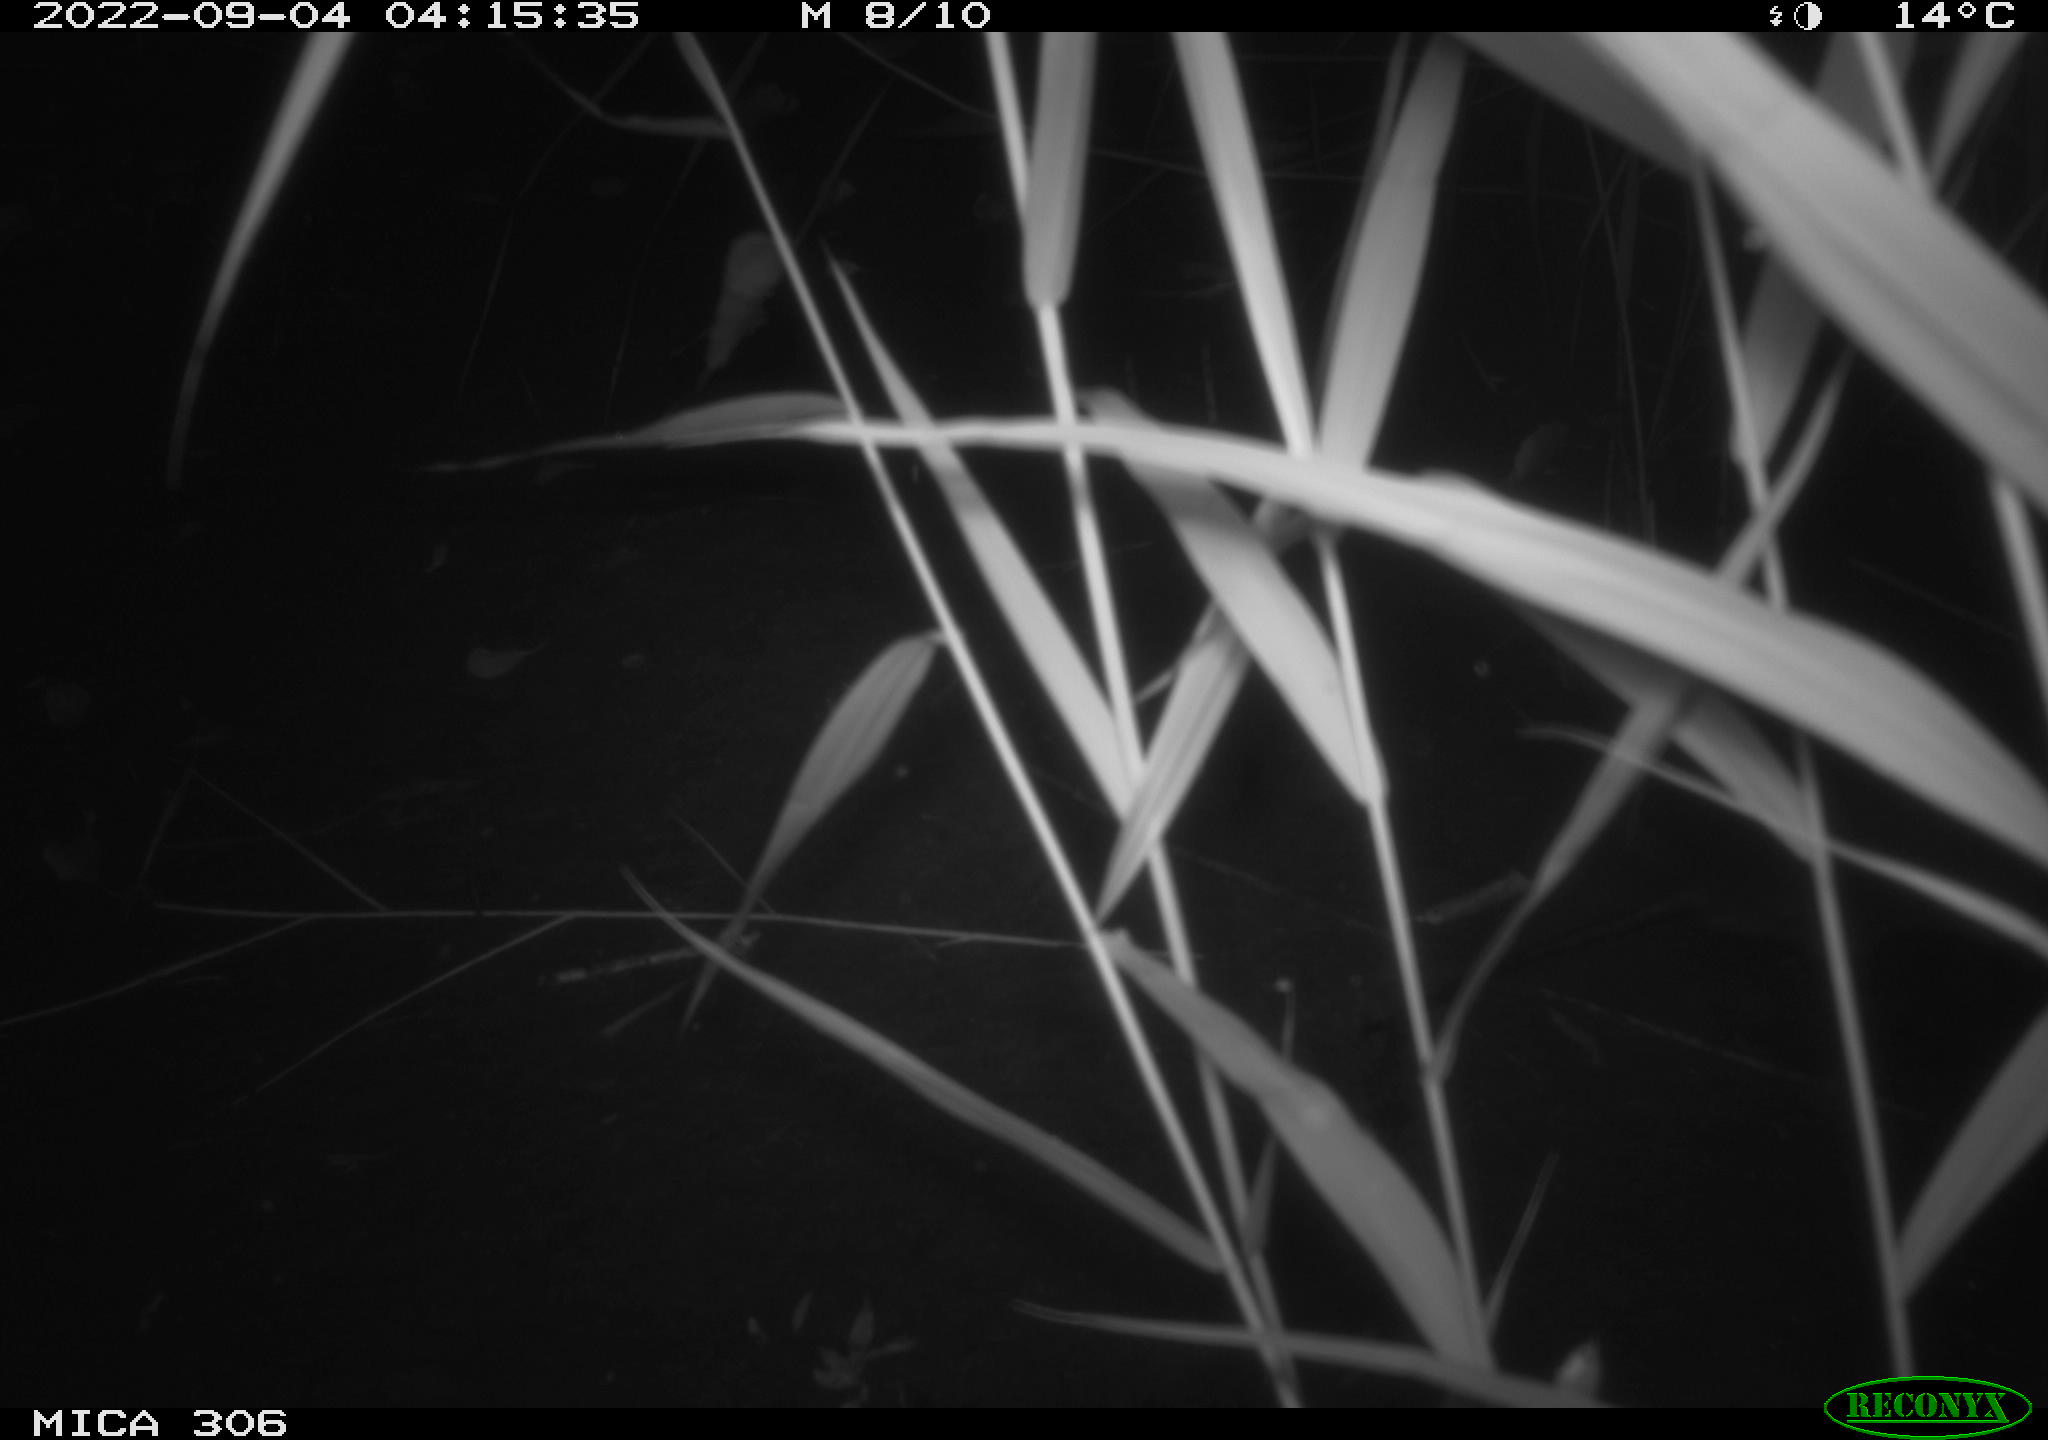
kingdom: Animalia
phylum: Chordata
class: Mammalia
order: Rodentia
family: Muridae
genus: Rattus
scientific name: Rattus norvegicus
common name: Brown rat
